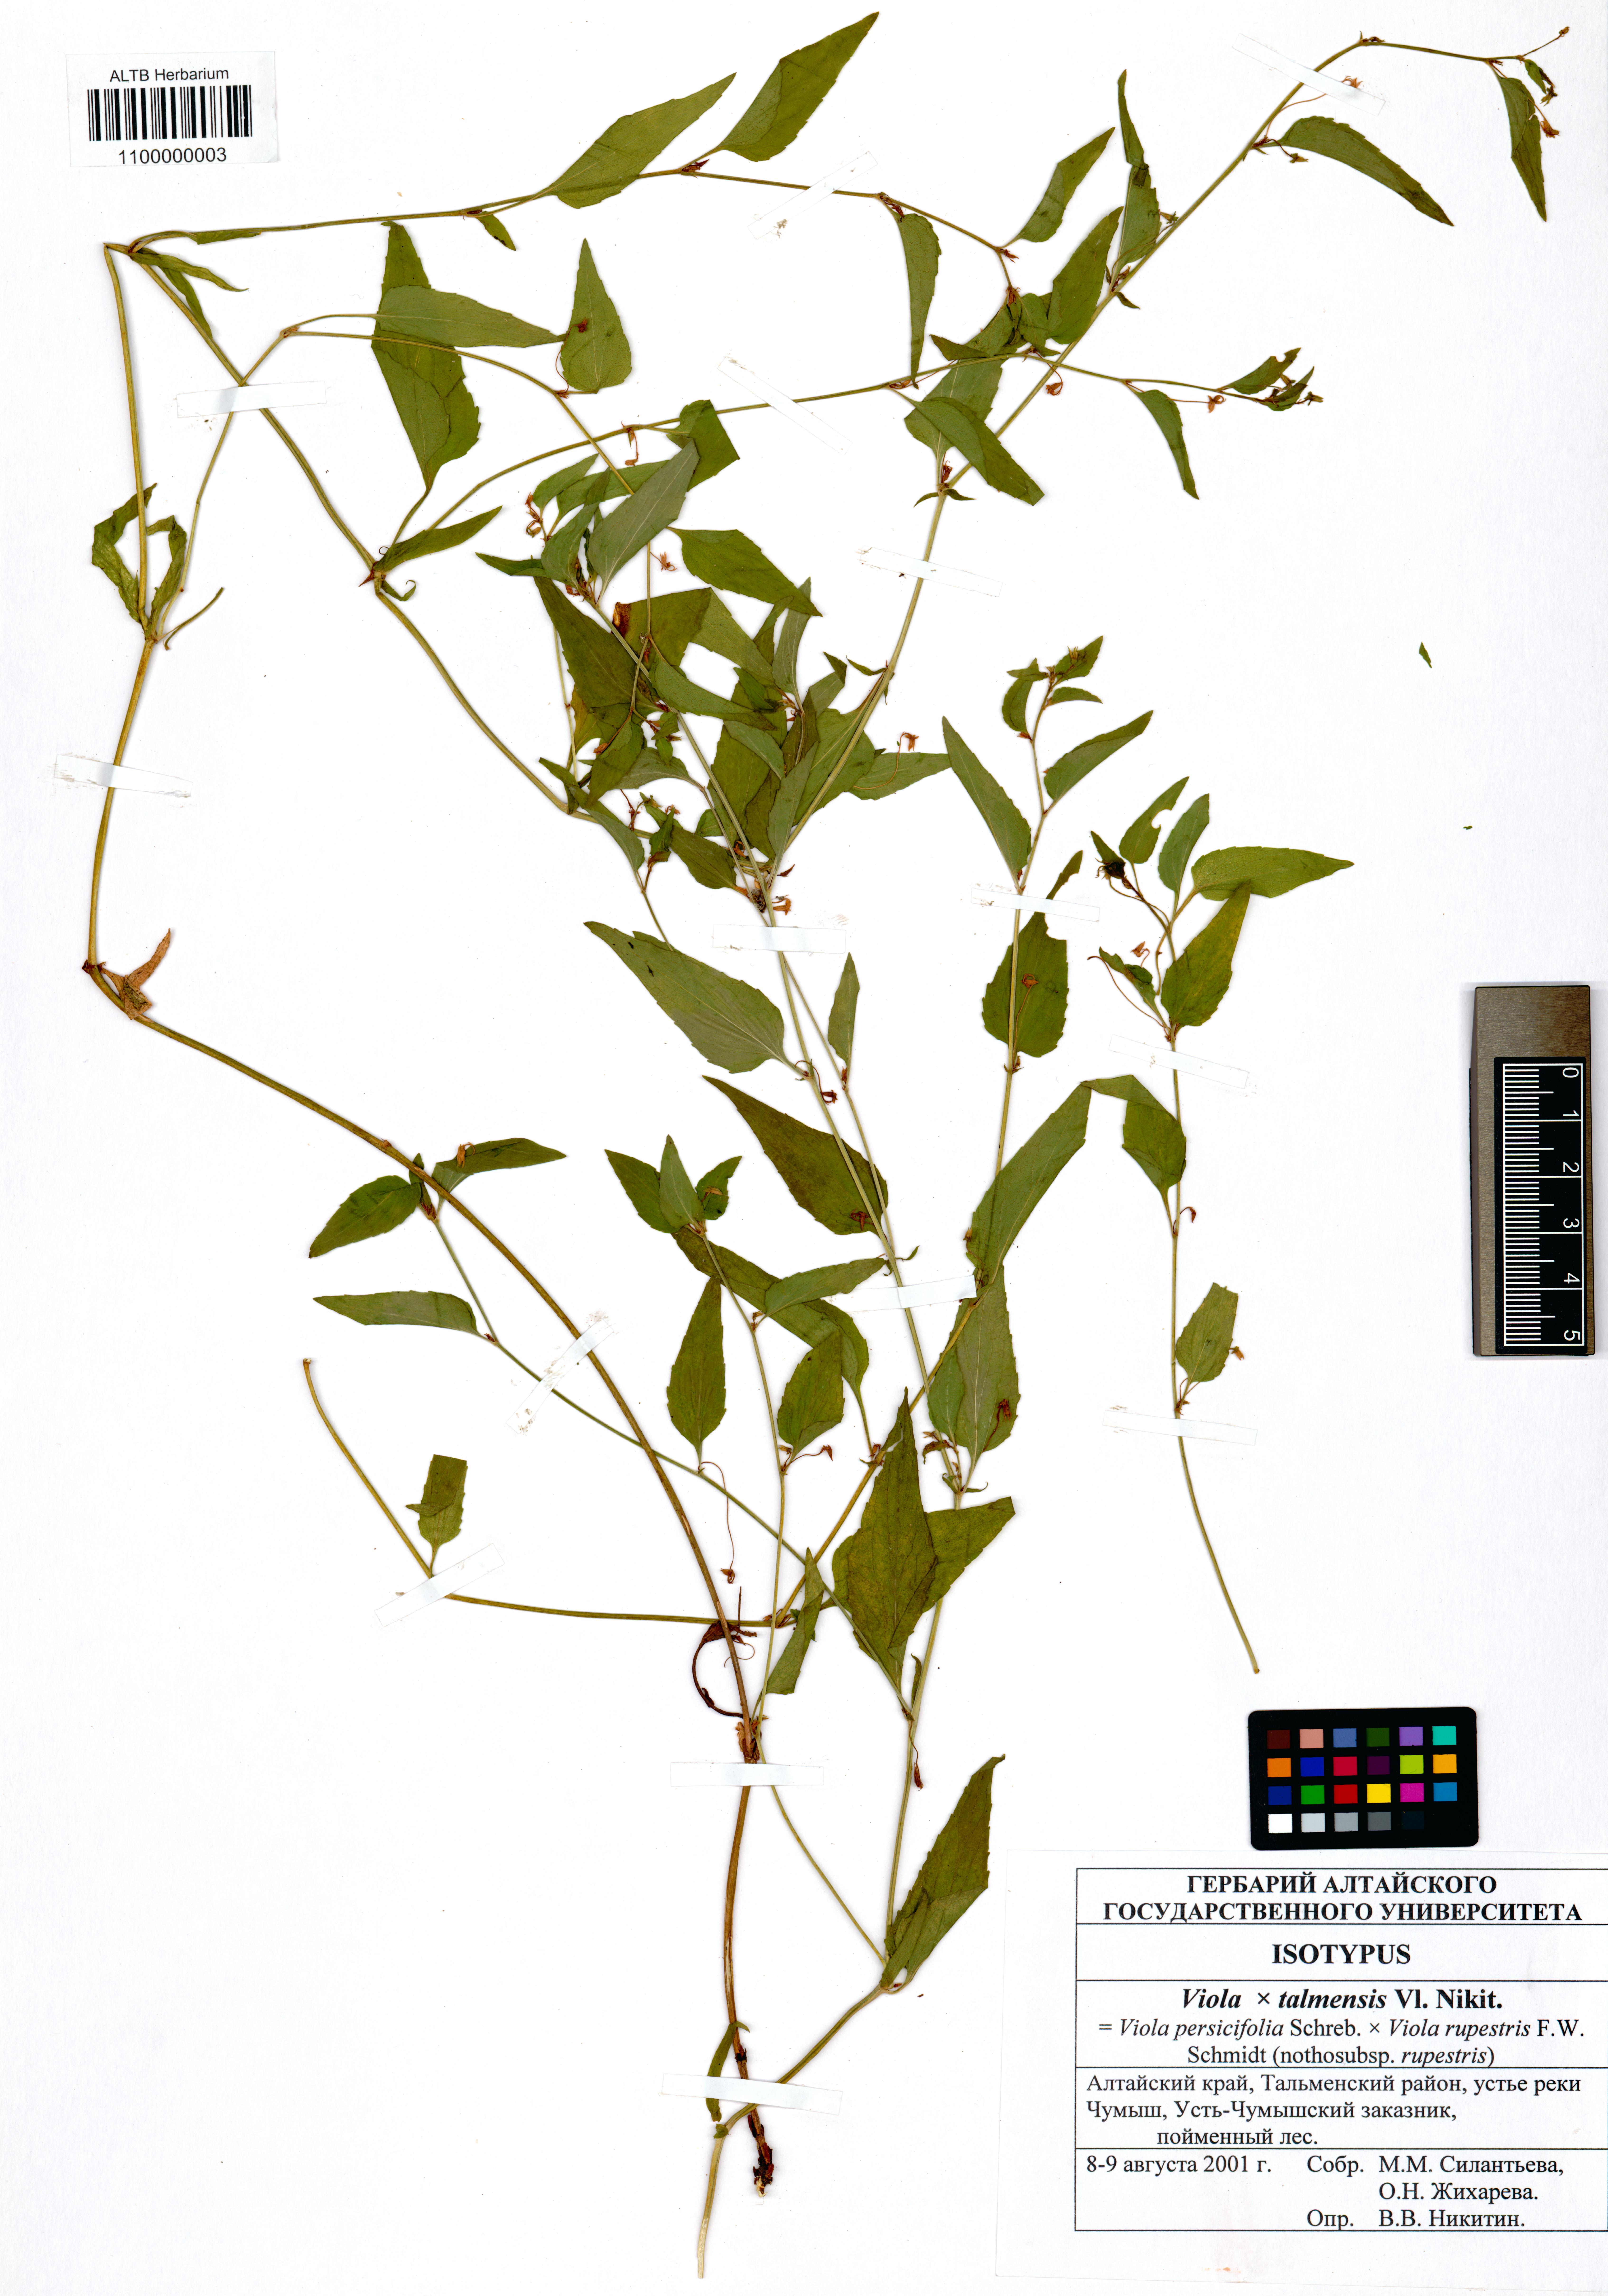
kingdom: Plantae
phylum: Tracheophyta
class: Magnoliopsida
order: Malpighiales
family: Violaceae
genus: Viola
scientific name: Viola vilnaensis
